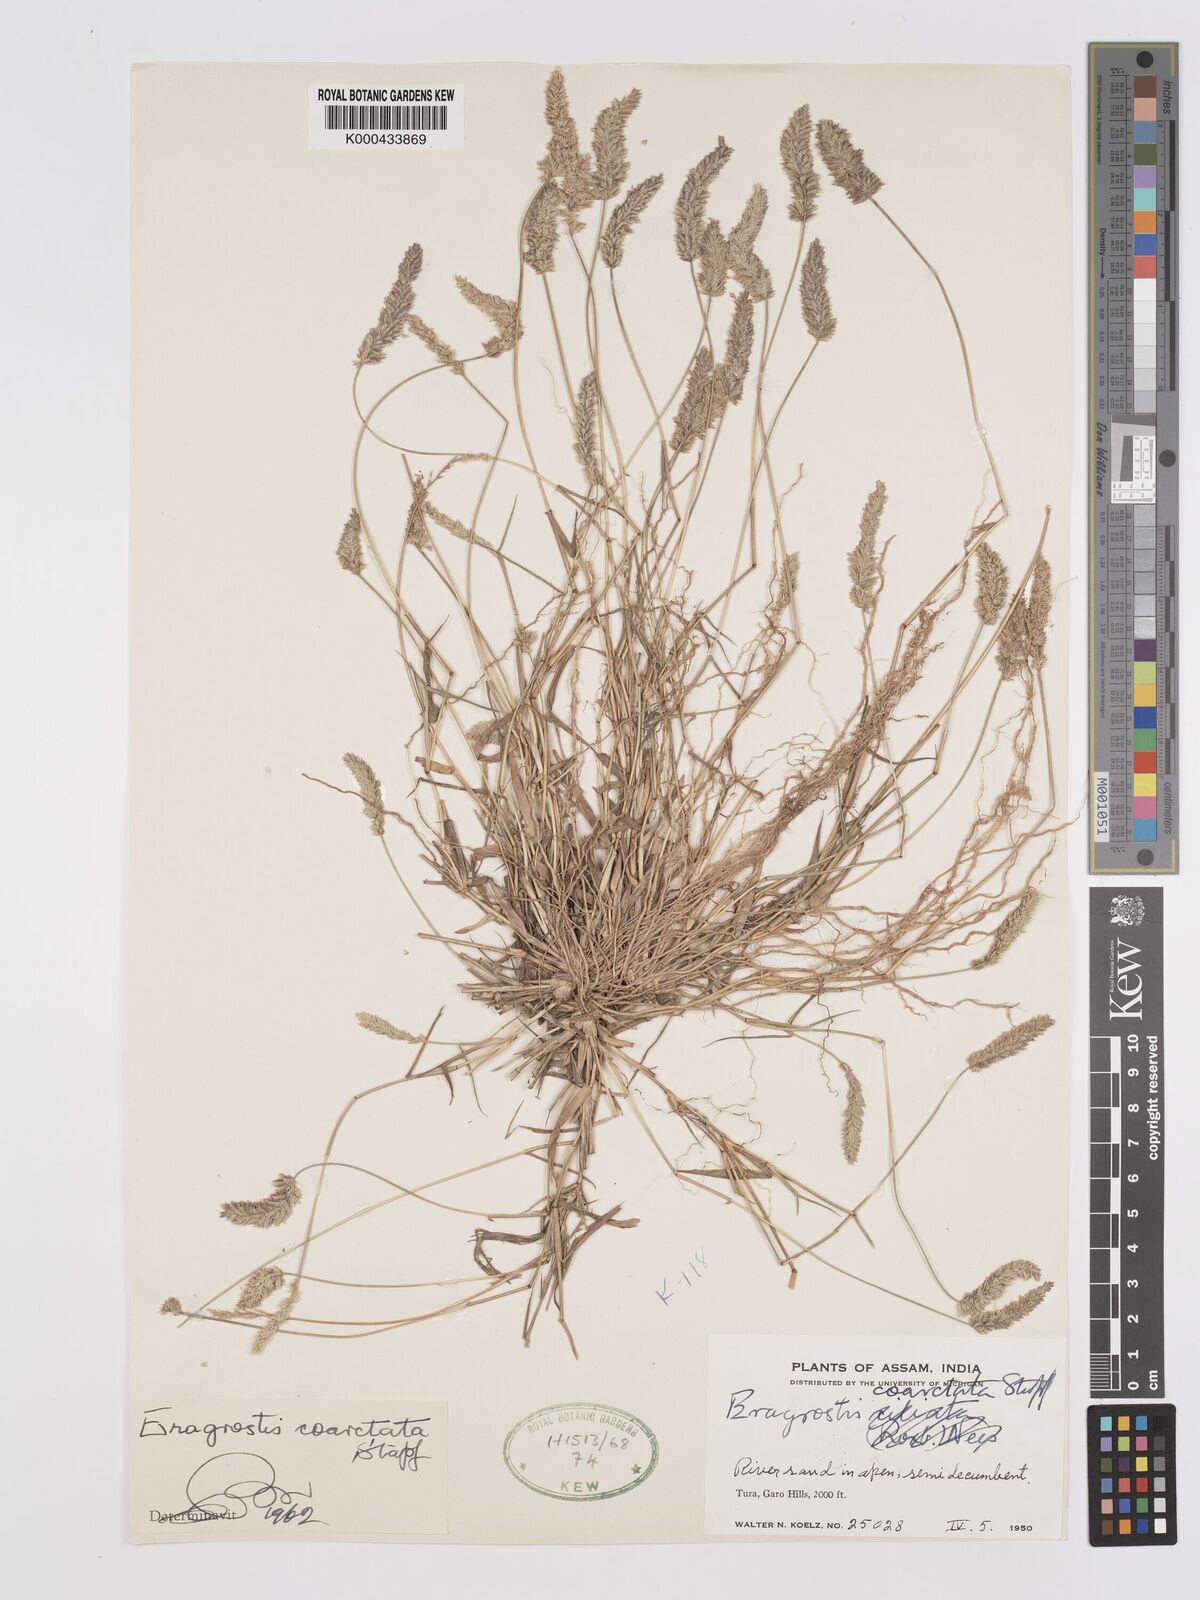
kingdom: Plantae
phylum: Tracheophyta
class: Liliopsida
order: Poales
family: Poaceae
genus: Eragrostis
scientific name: Eragrostis coarctata
